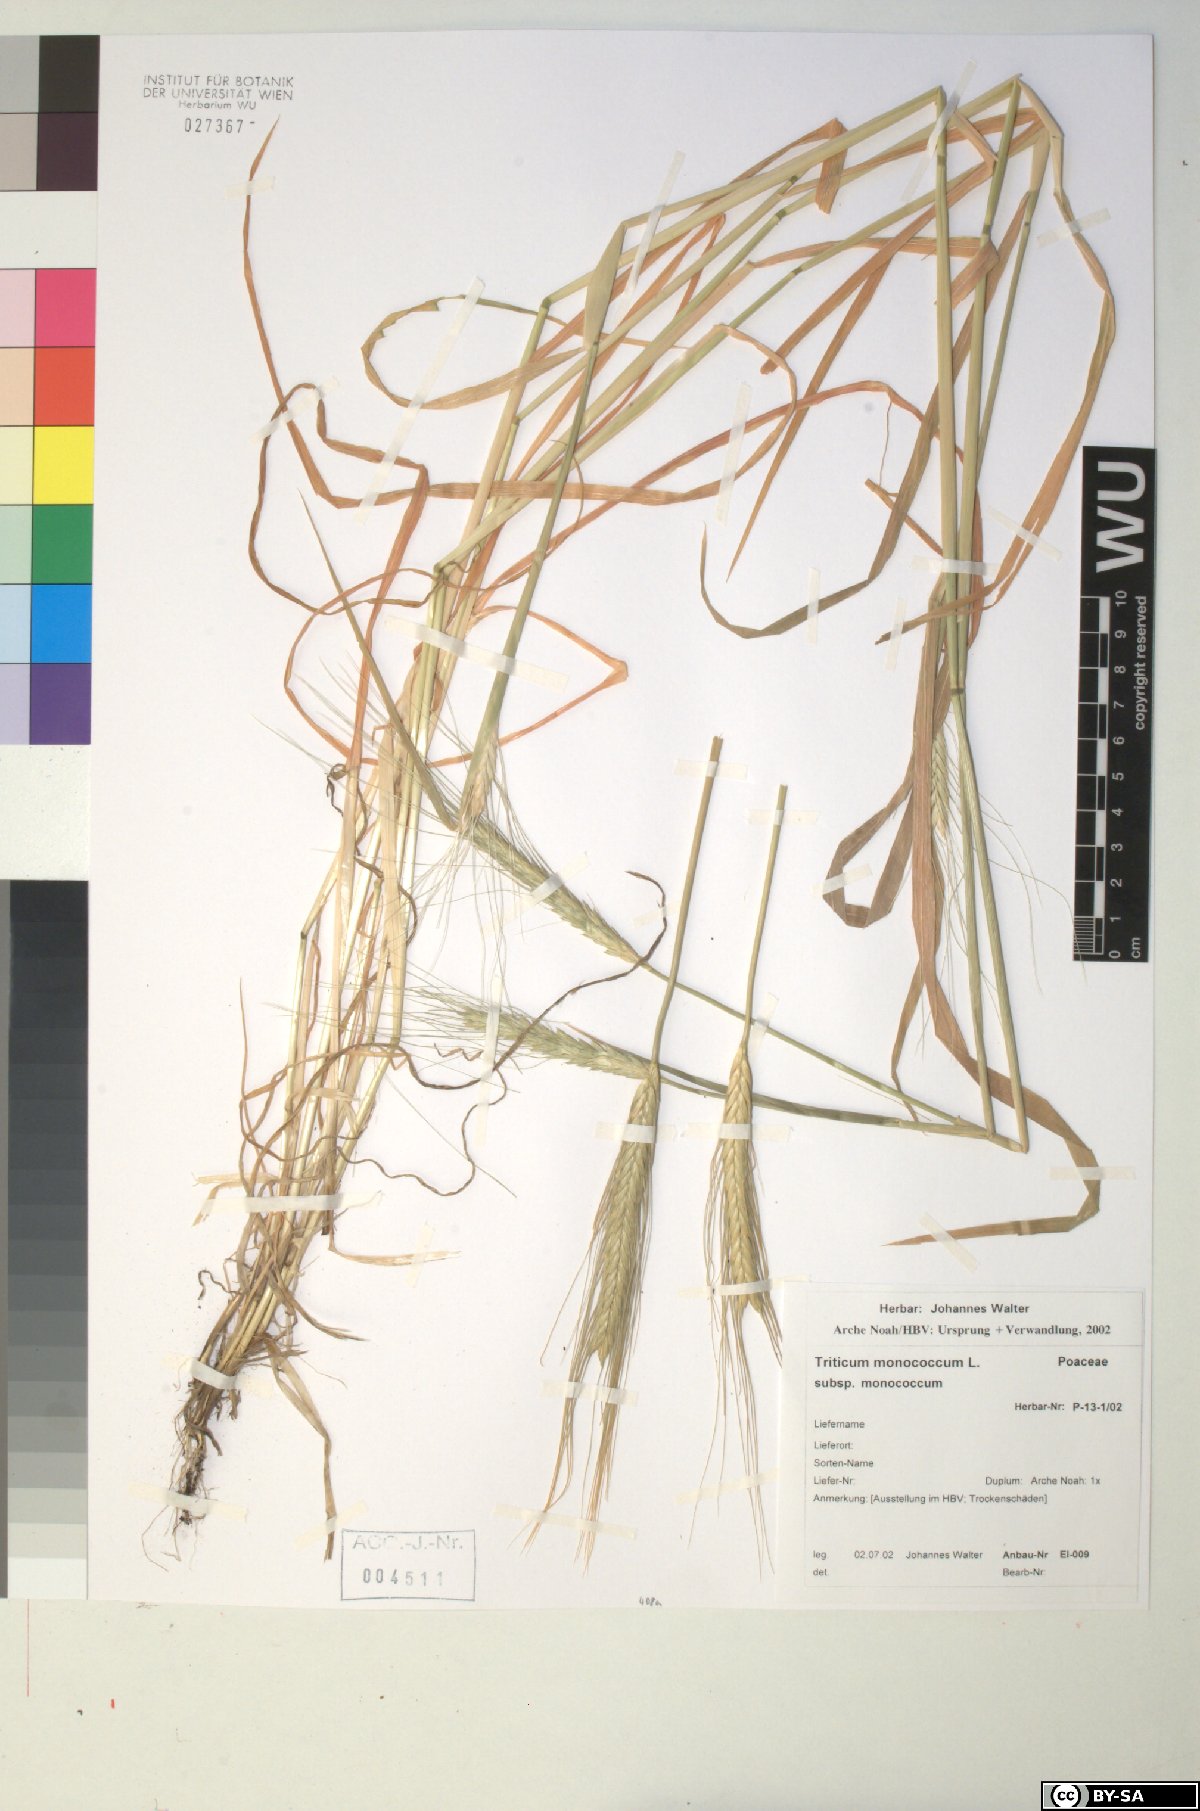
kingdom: Plantae
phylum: Tracheophyta
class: Liliopsida
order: Poales
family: Poaceae
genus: Triticum
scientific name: Triticum monococcum
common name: Einkorn
